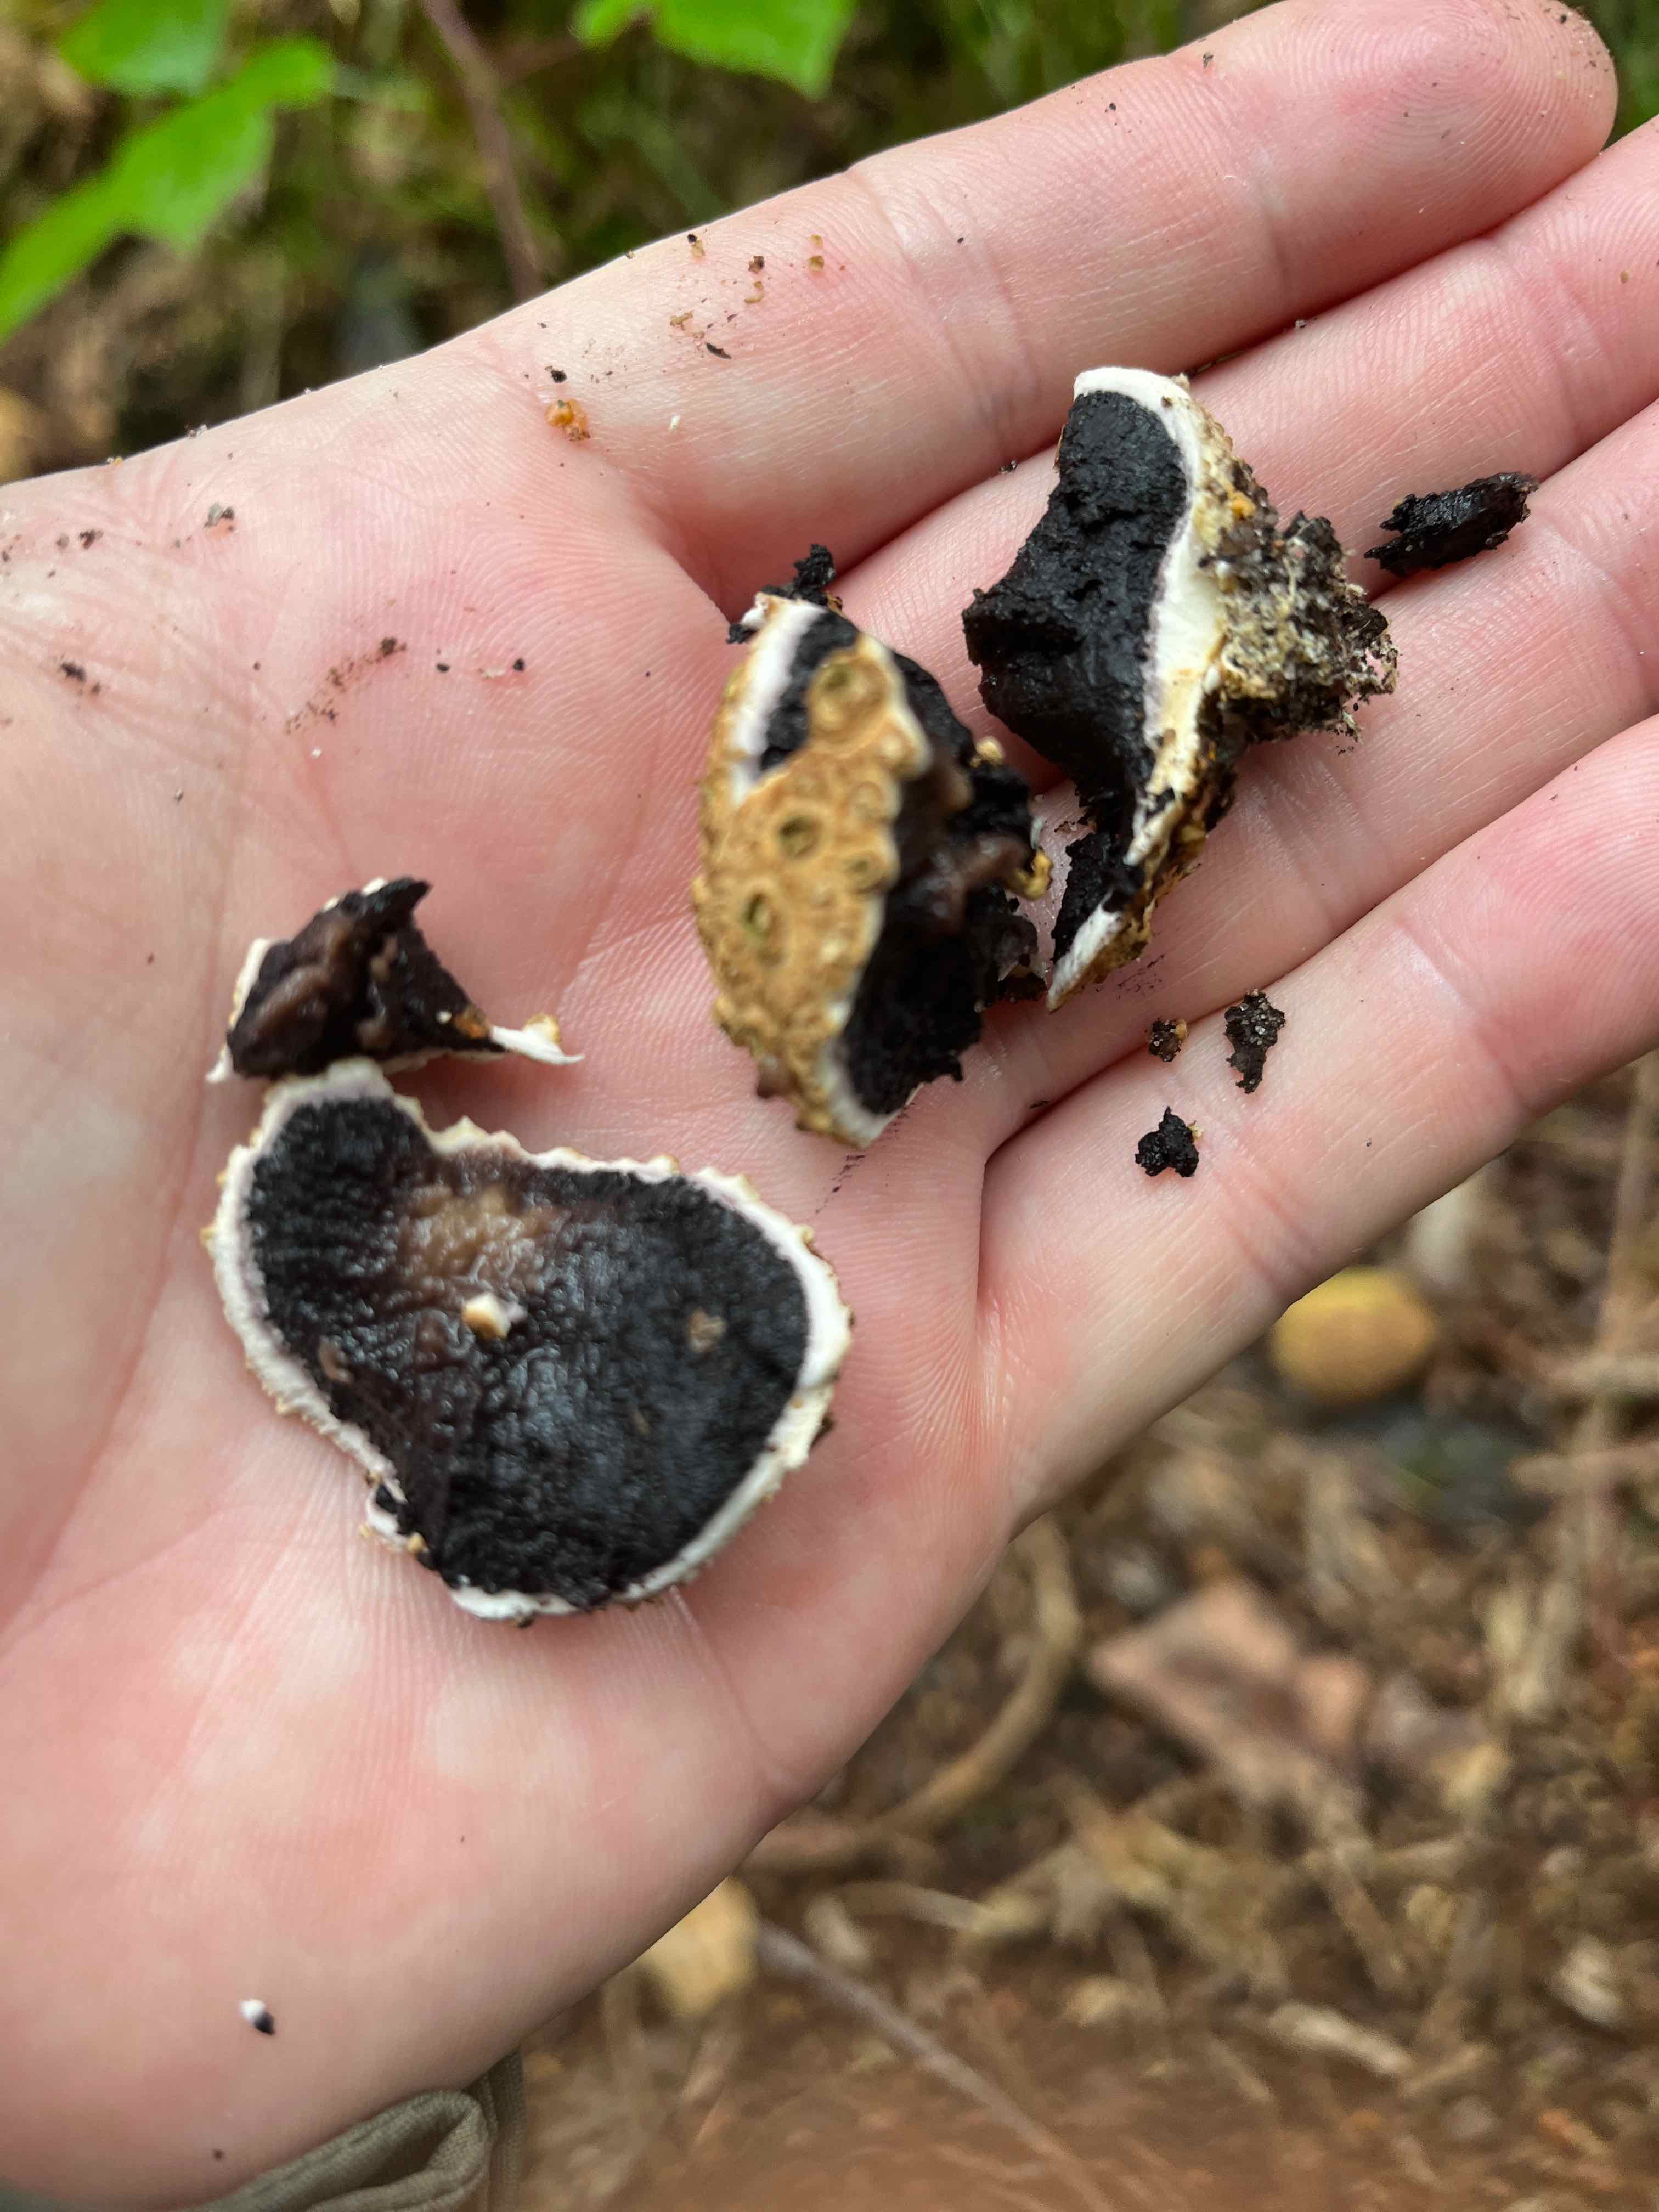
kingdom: Fungi
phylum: Basidiomycota
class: Agaricomycetes
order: Boletales
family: Sclerodermataceae
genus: Scleroderma
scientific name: Scleroderma citrinum
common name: almindelig bruskbold
